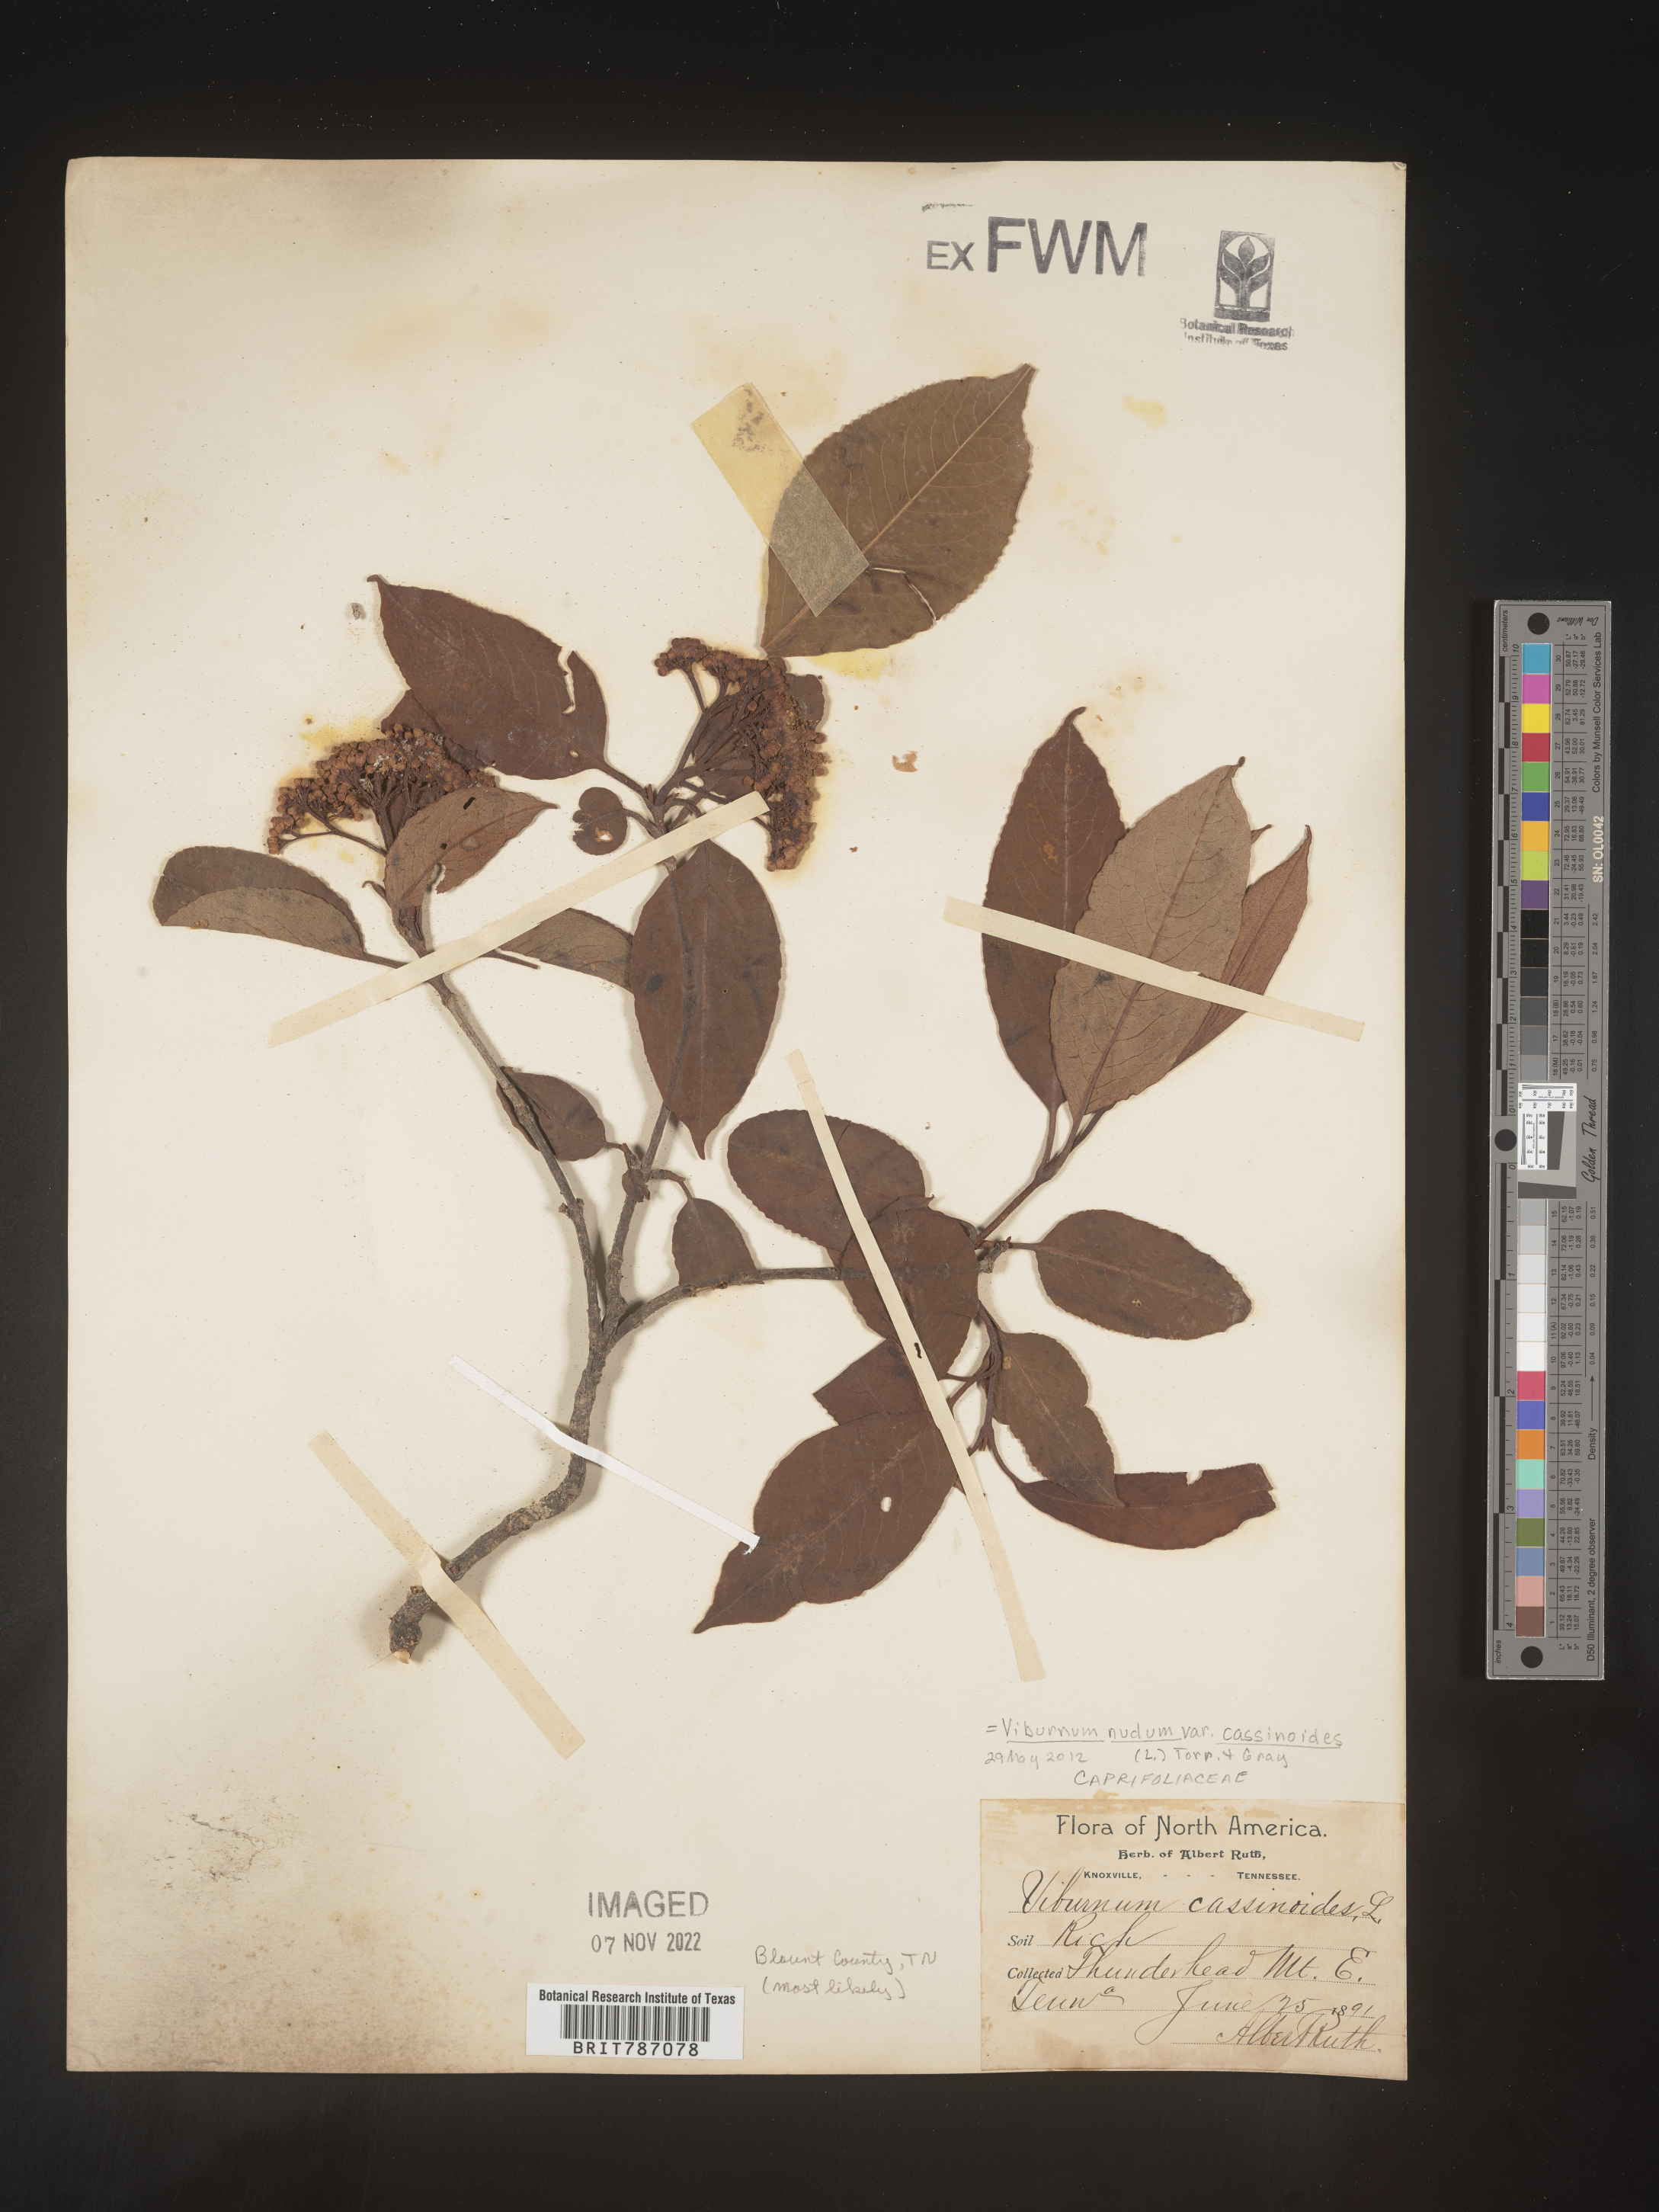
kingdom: Plantae
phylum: Tracheophyta
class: Magnoliopsida
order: Dipsacales
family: Viburnaceae
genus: Viburnum
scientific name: Viburnum nudum
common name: Possum haw
